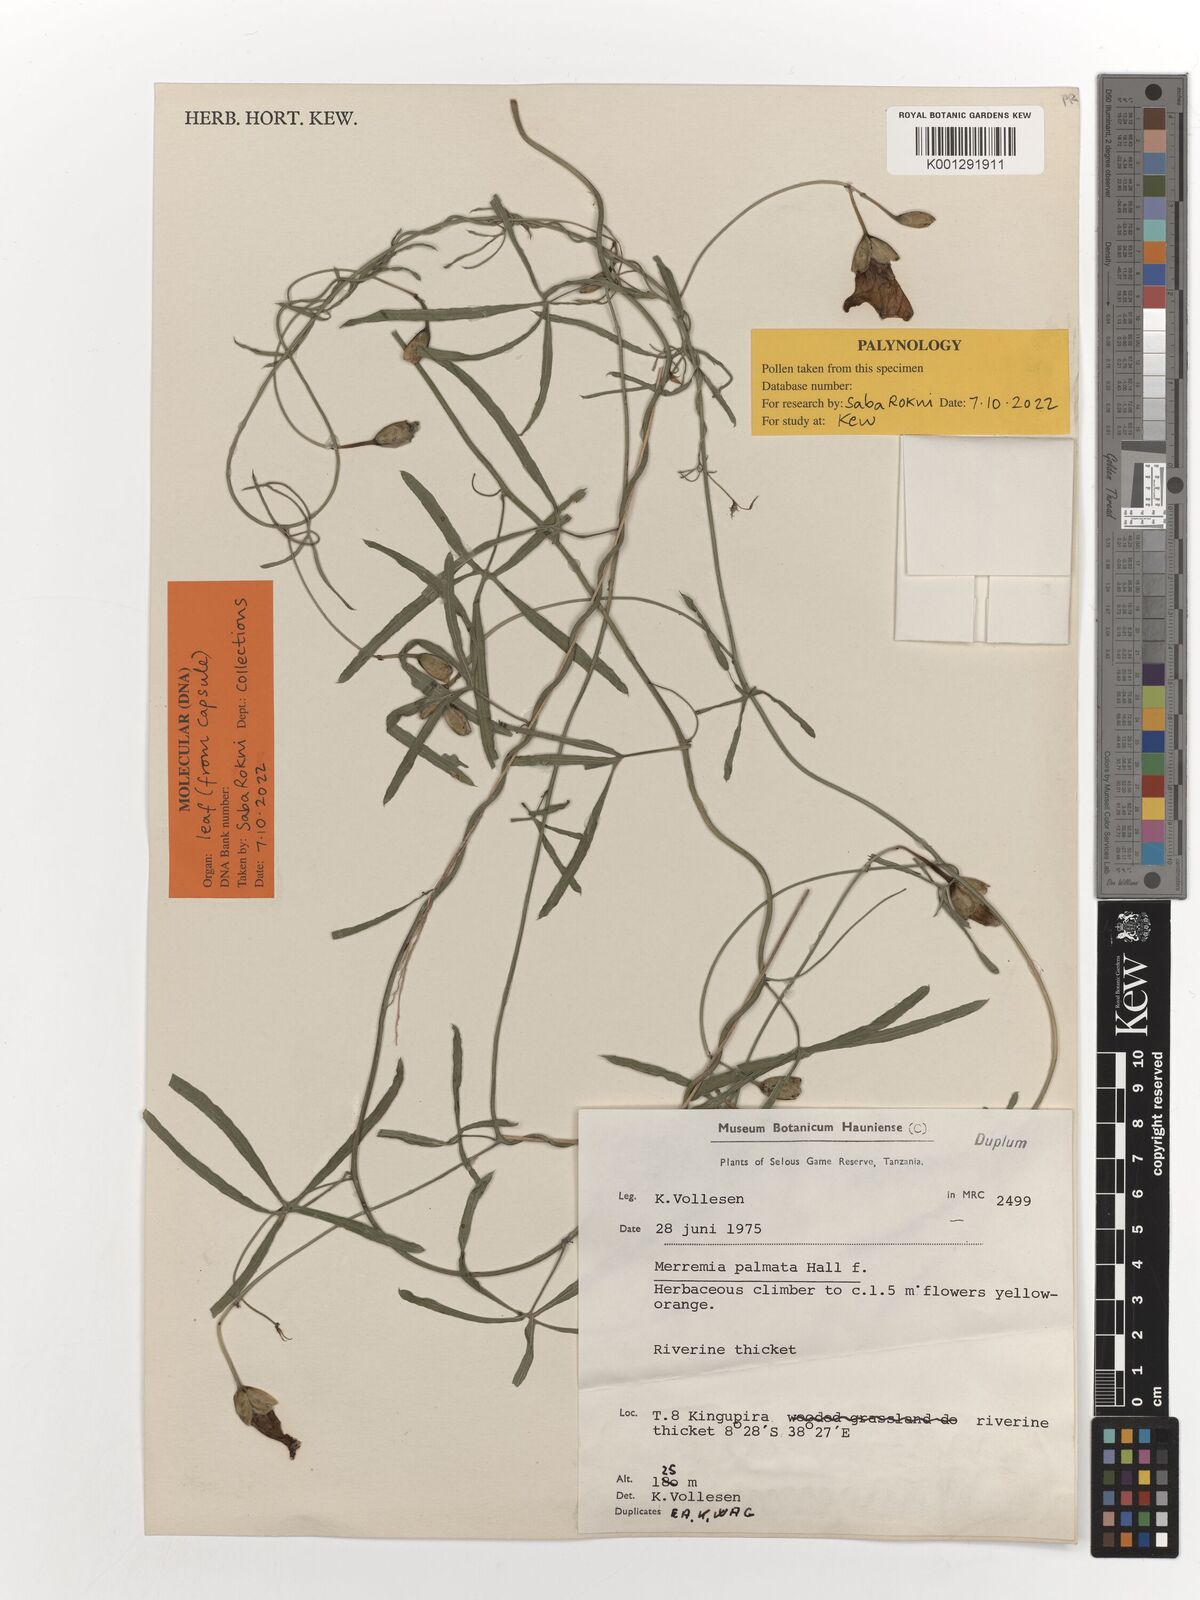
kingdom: Plantae
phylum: Tracheophyta
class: Magnoliopsida
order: Solanales
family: Convolvulaceae
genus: Merremia
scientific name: Merremia palmata
